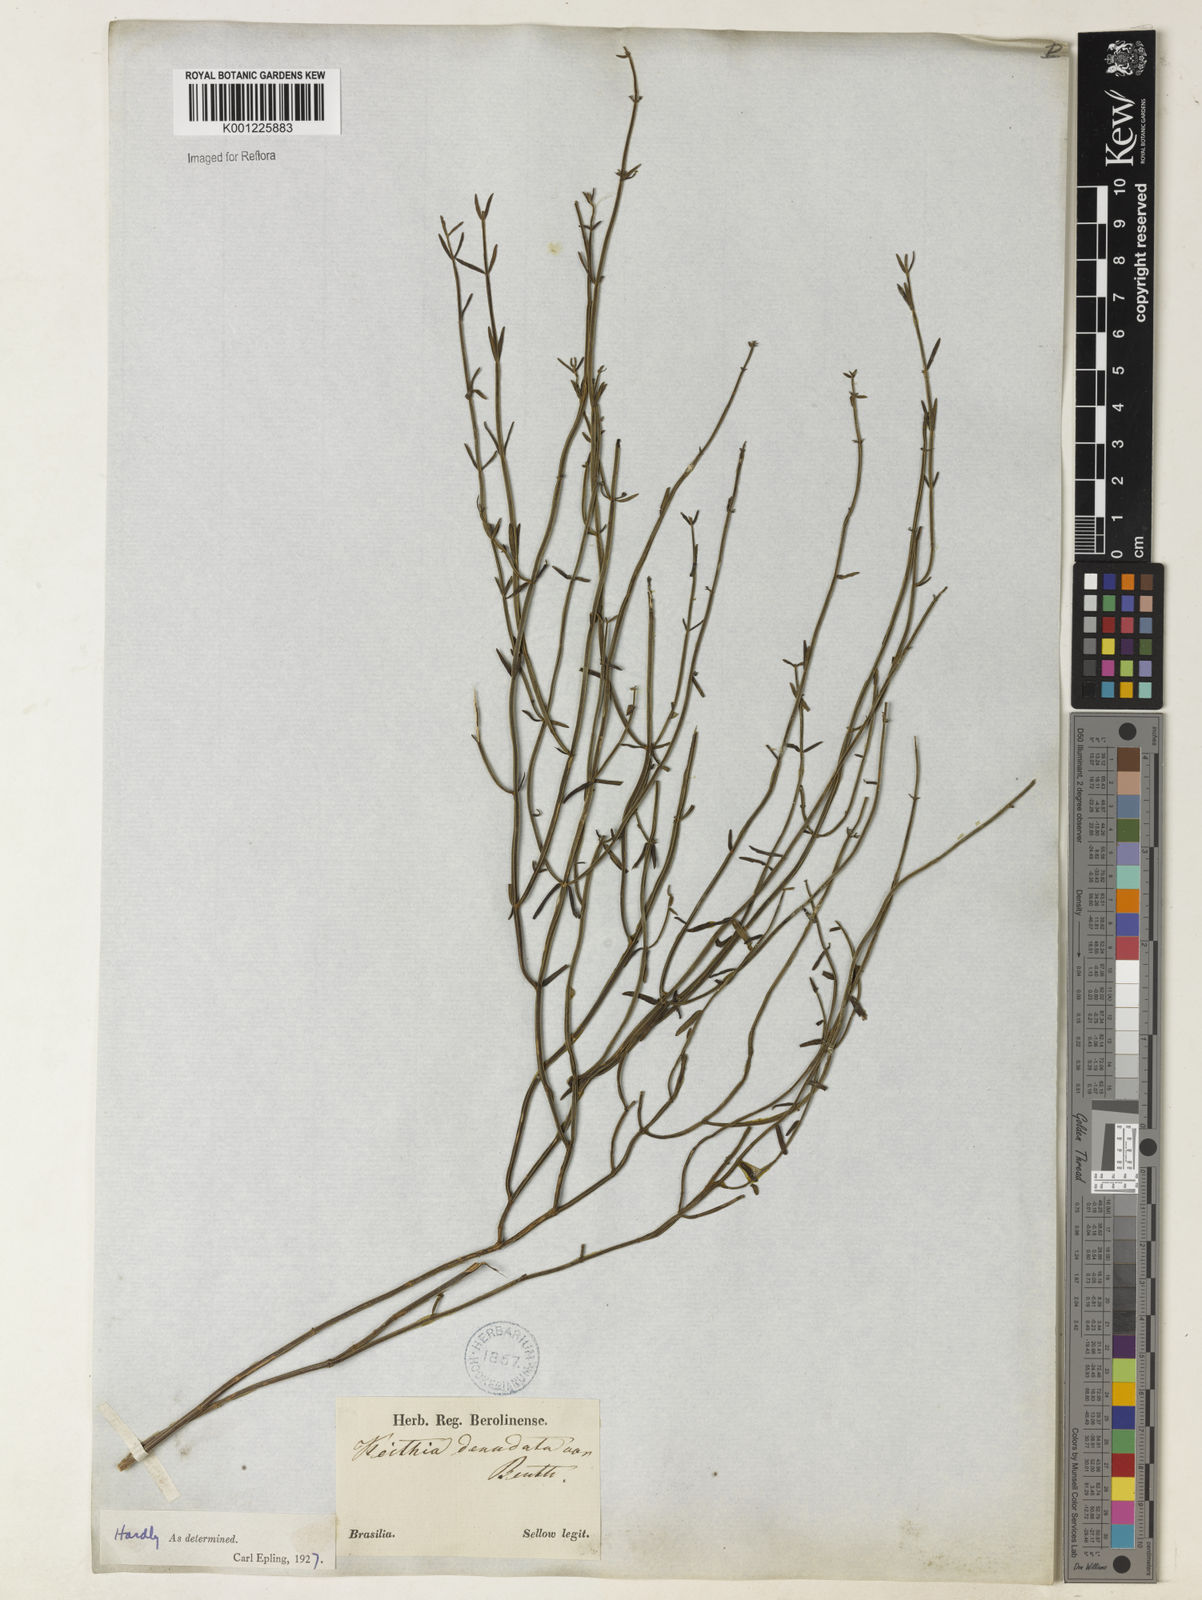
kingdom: Plantae
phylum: Tracheophyta
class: Magnoliopsida
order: Lamiales
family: Lamiaceae
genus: Rhabdocaulon
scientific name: Rhabdocaulon stenodontum
